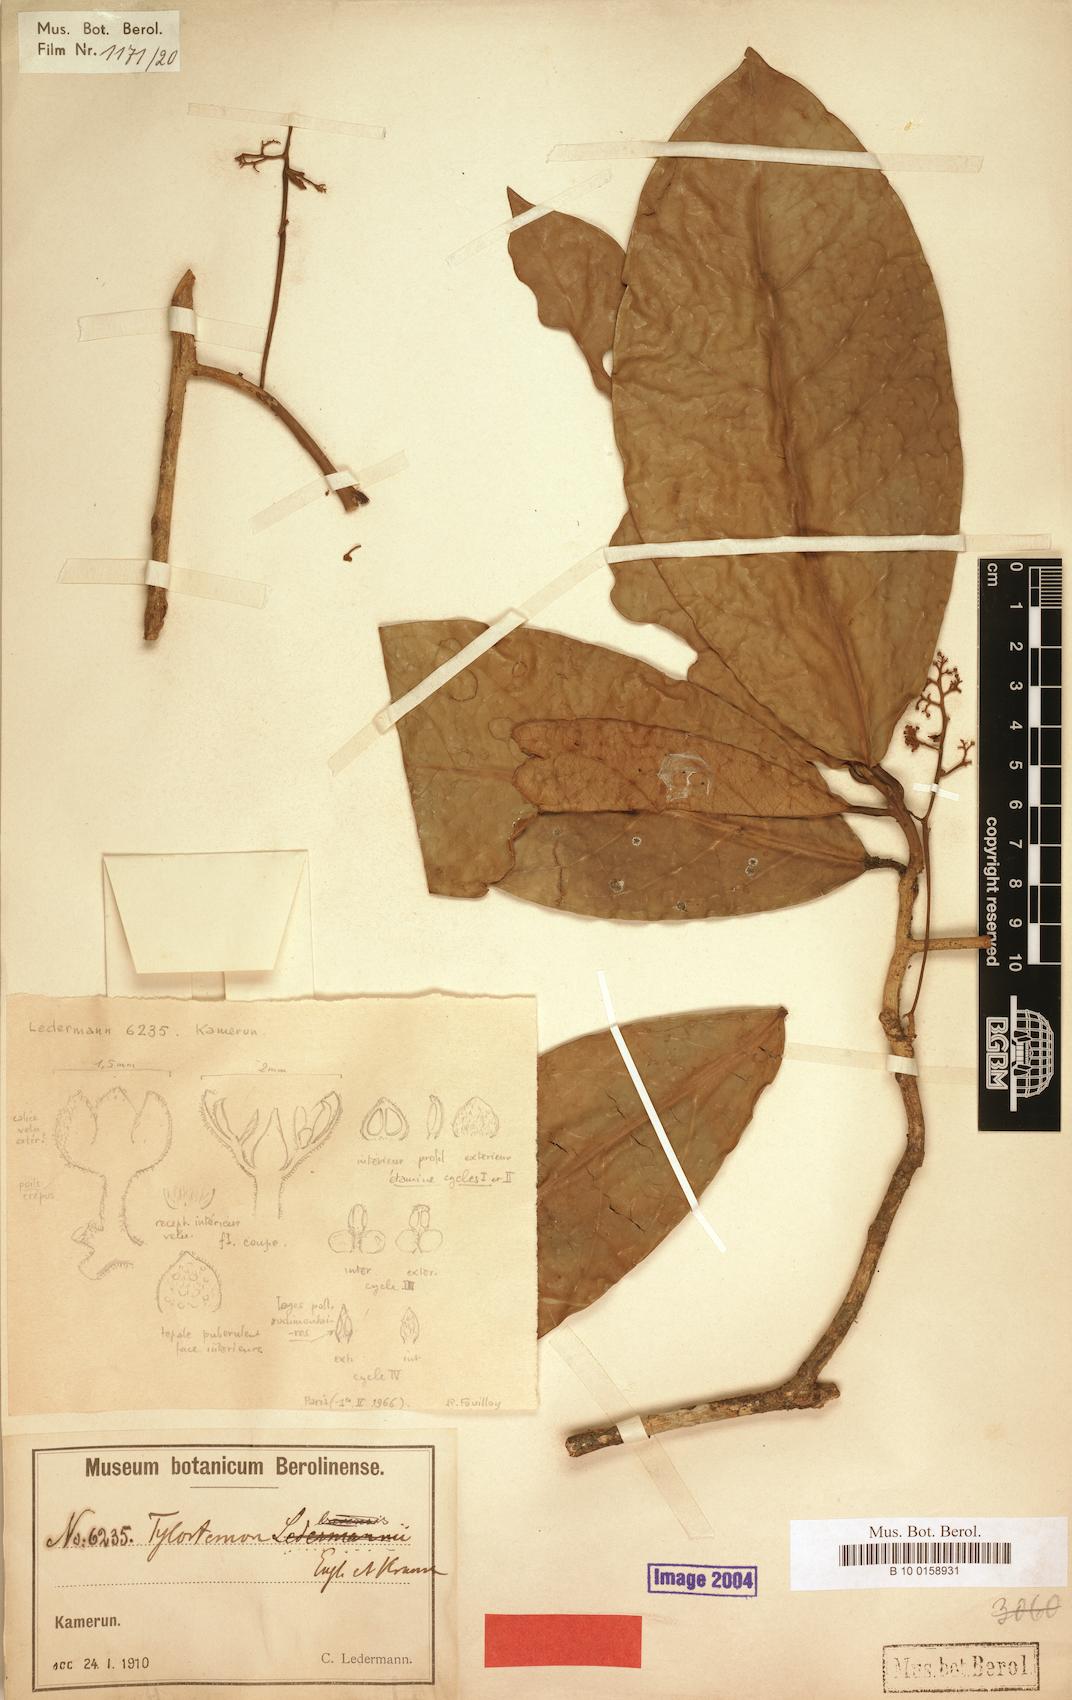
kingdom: Plantae
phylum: Tracheophyta
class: Magnoliopsida
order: Laurales
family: Lauraceae
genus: Beilschmiedia
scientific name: Beilschmiedia robynsiana
